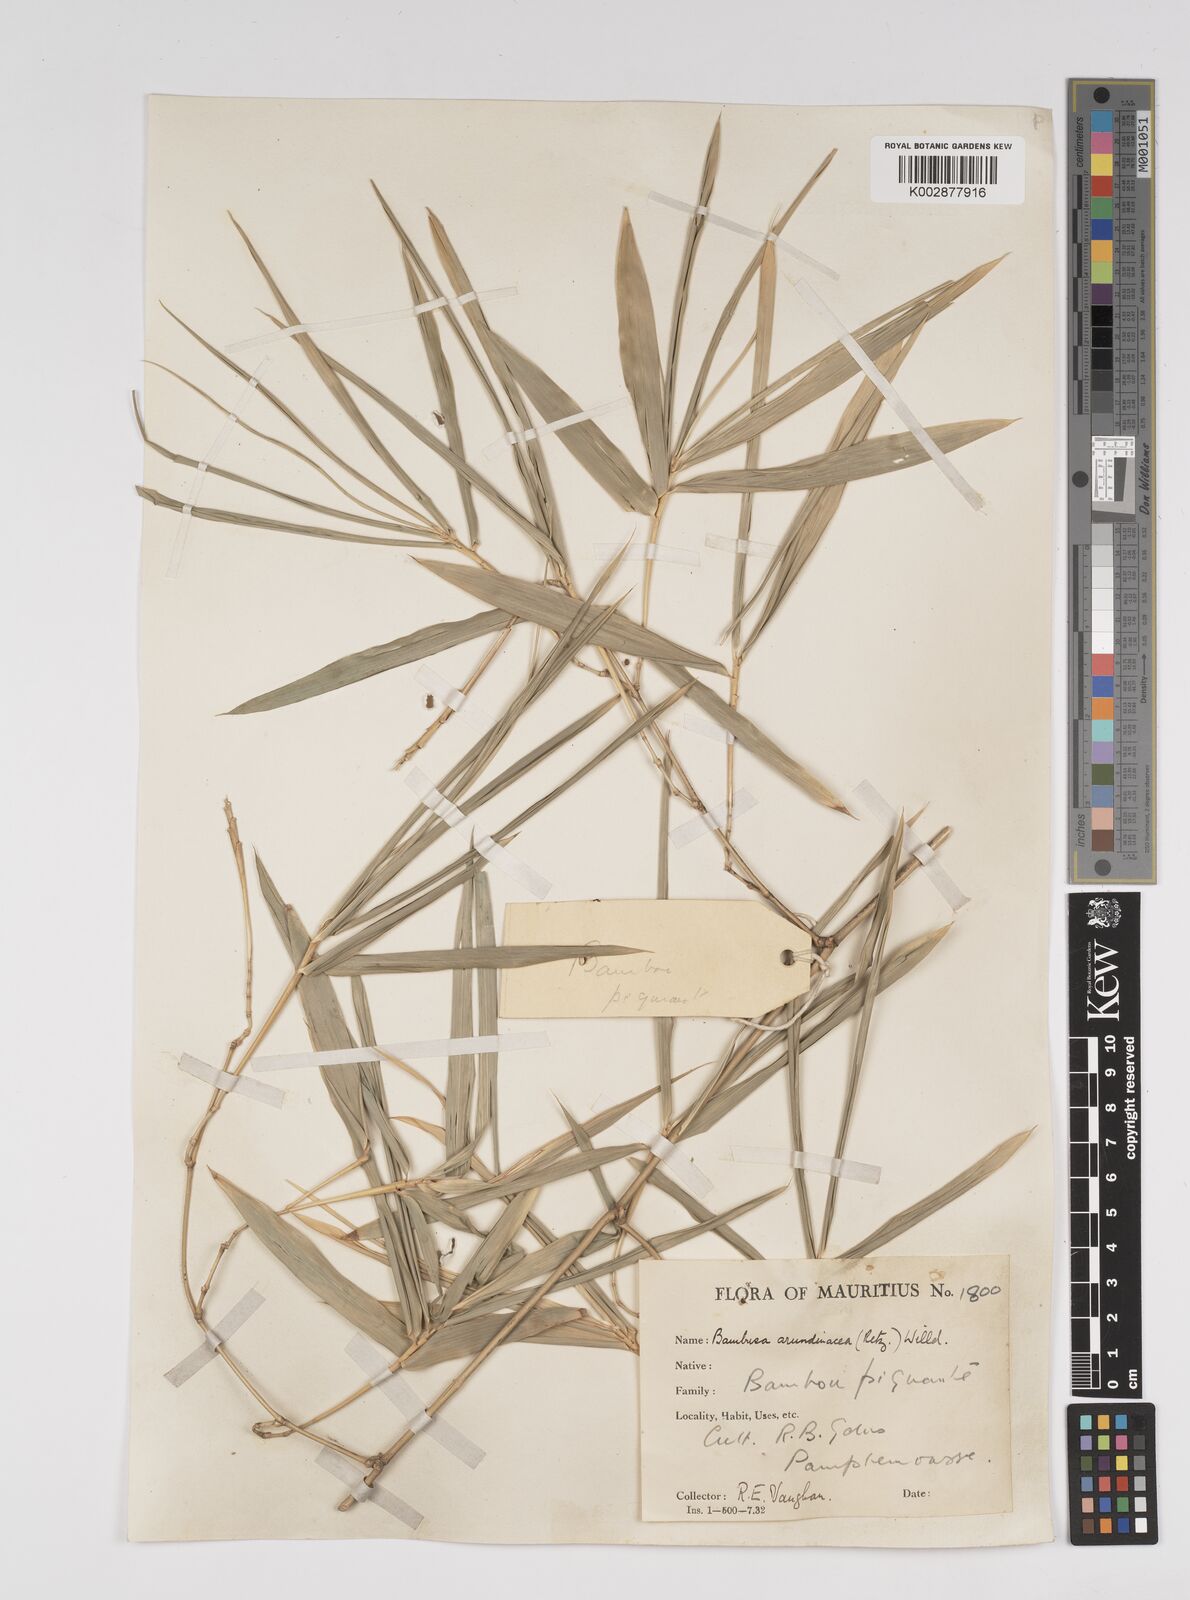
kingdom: Plantae
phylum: Tracheophyta
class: Liliopsida
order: Poales
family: Poaceae
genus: Bambusa
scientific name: Bambusa bambos
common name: Indian thorny bamboo
